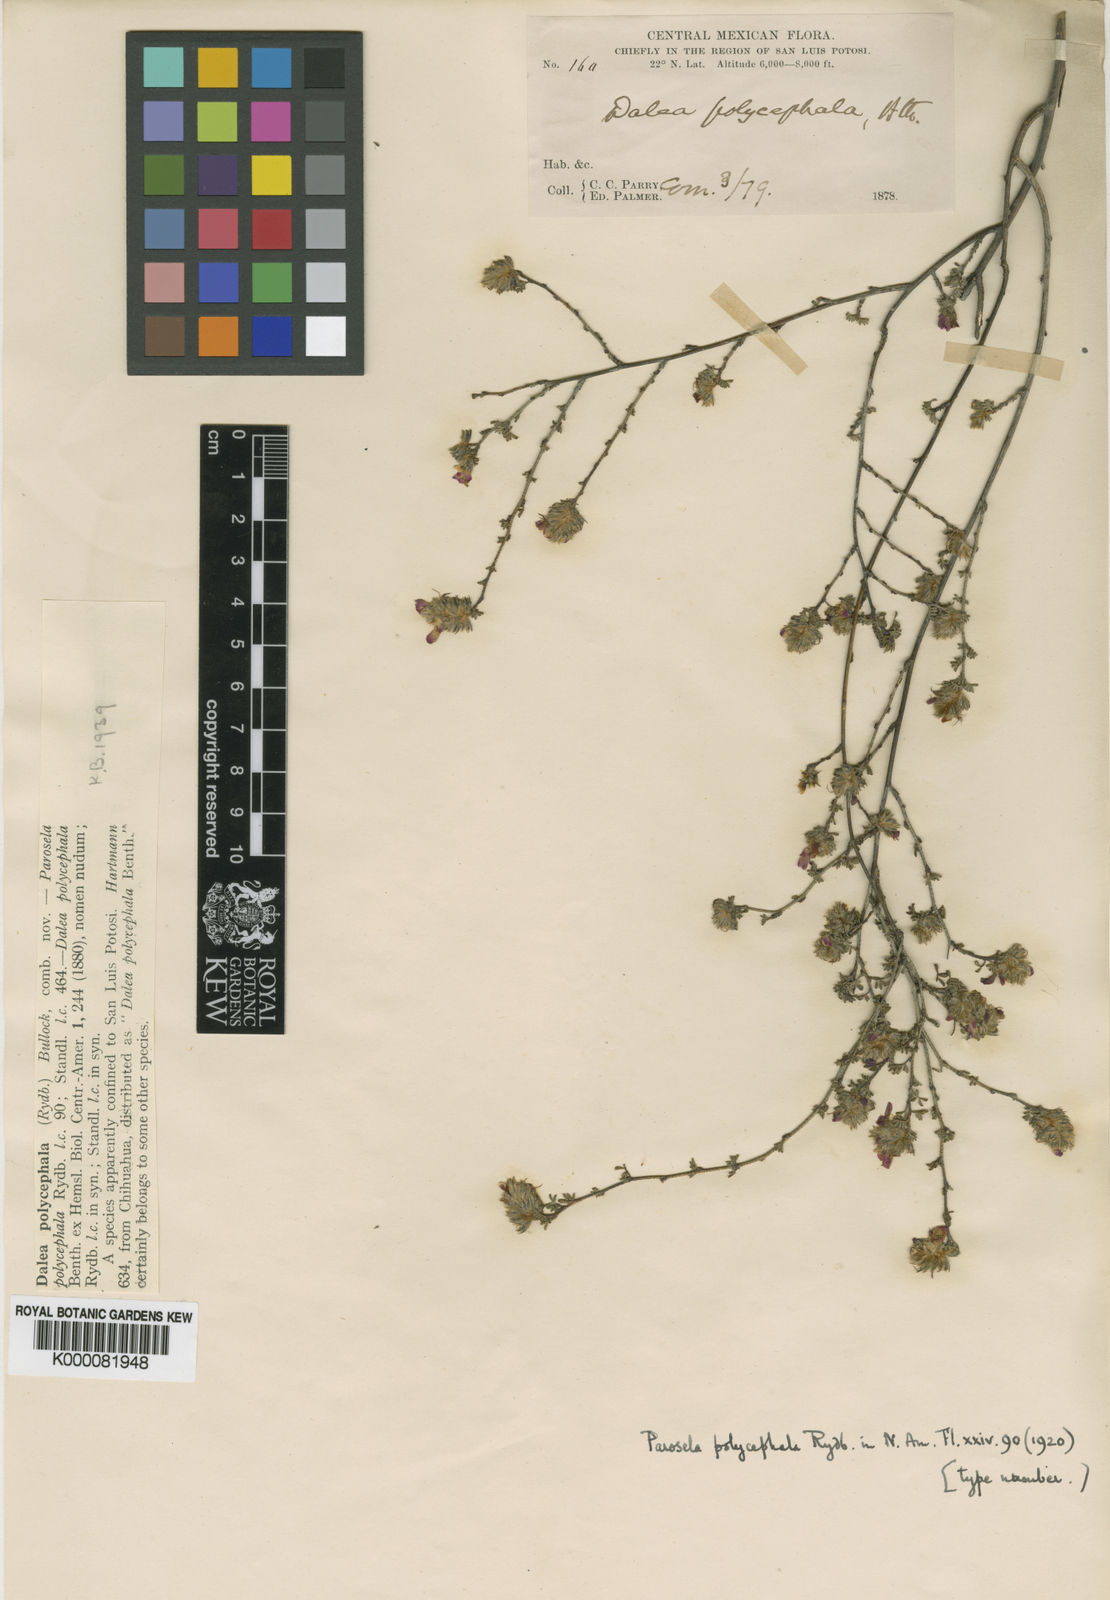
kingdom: Plantae
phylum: Tracheophyta
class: Magnoliopsida
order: Fabales
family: Fabaceae
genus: Dalea
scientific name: Dalea minutifolia
